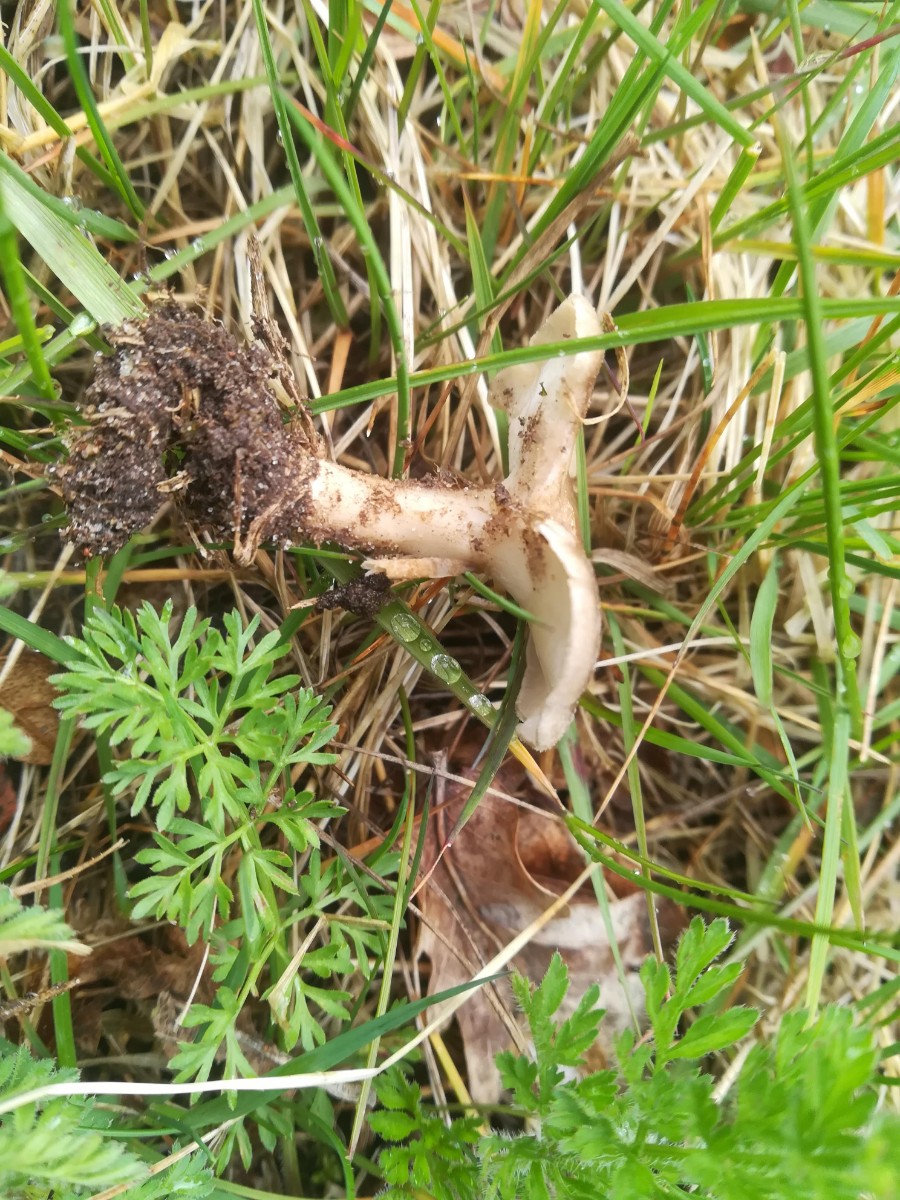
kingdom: Fungi
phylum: Basidiomycota
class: Agaricomycetes
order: Polyporales
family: Polyporaceae
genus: Lentinus
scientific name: Lentinus substrictus
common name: forårs-stilkporesvamp
